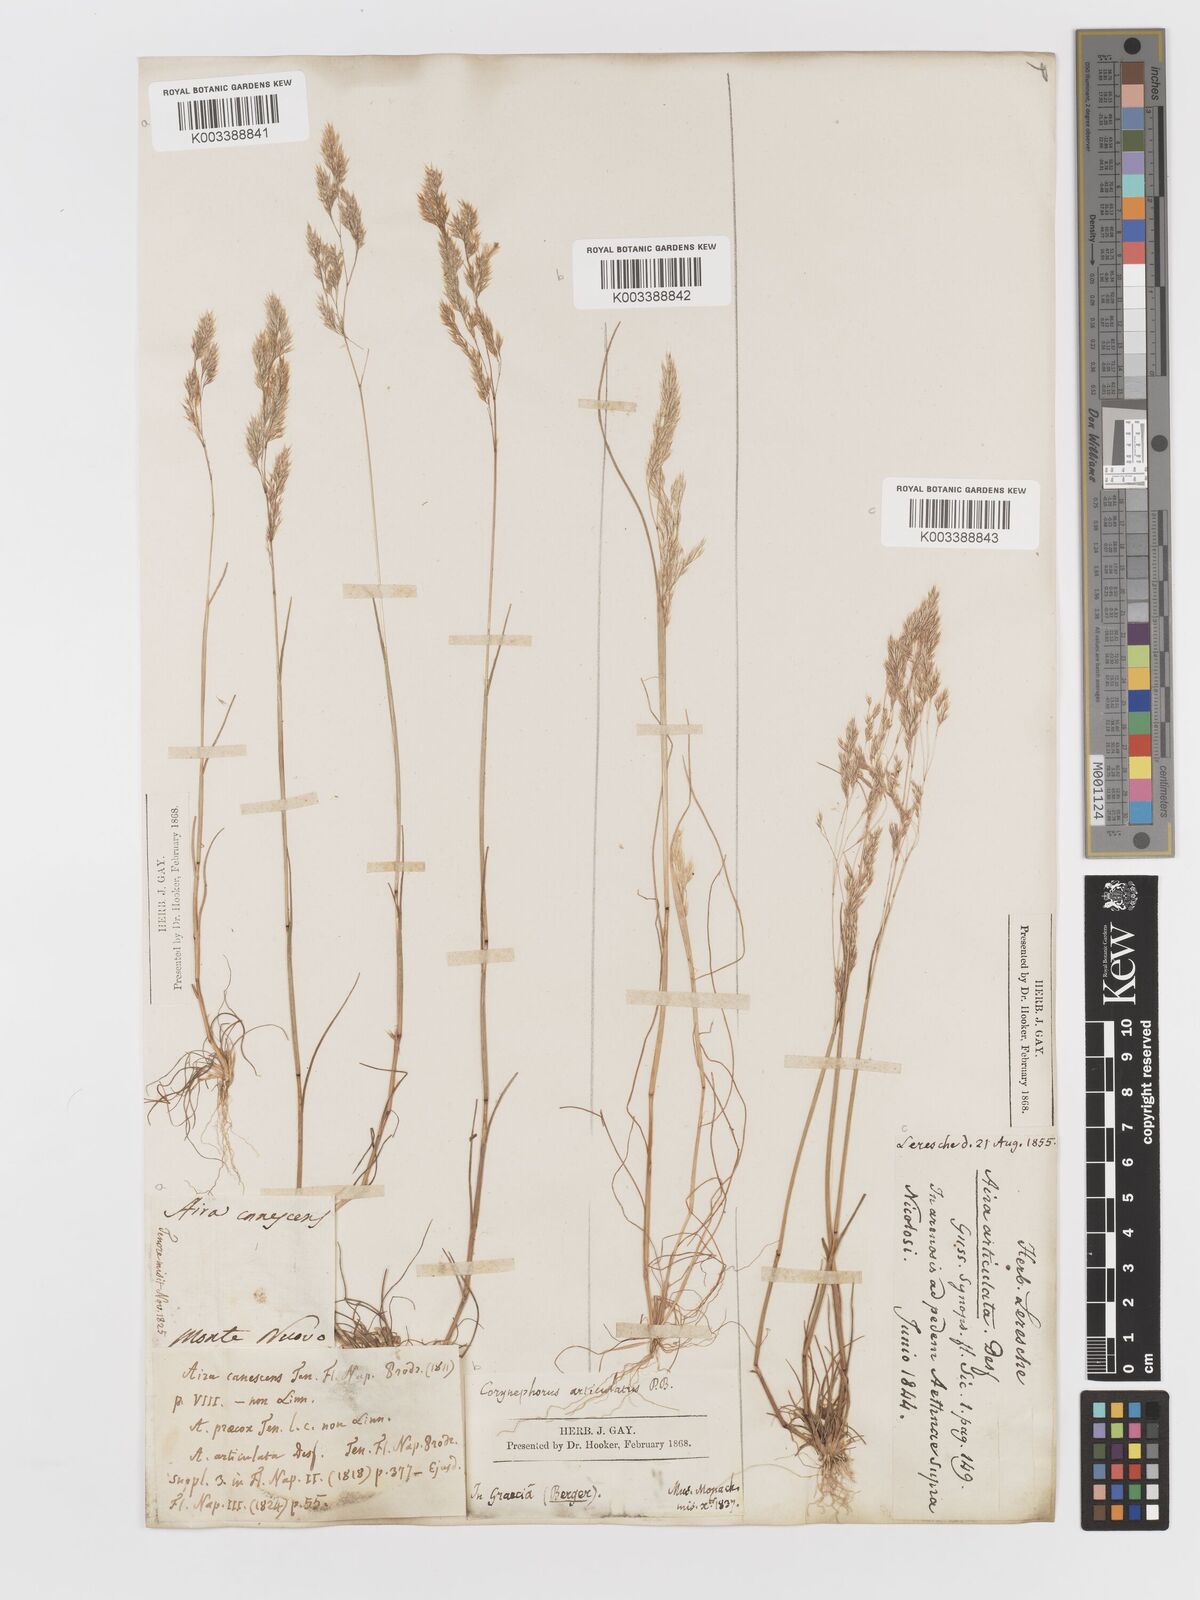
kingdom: Plantae
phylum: Tracheophyta
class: Liliopsida
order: Poales
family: Poaceae
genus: Corynephorus
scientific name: Corynephorus divaricatus
